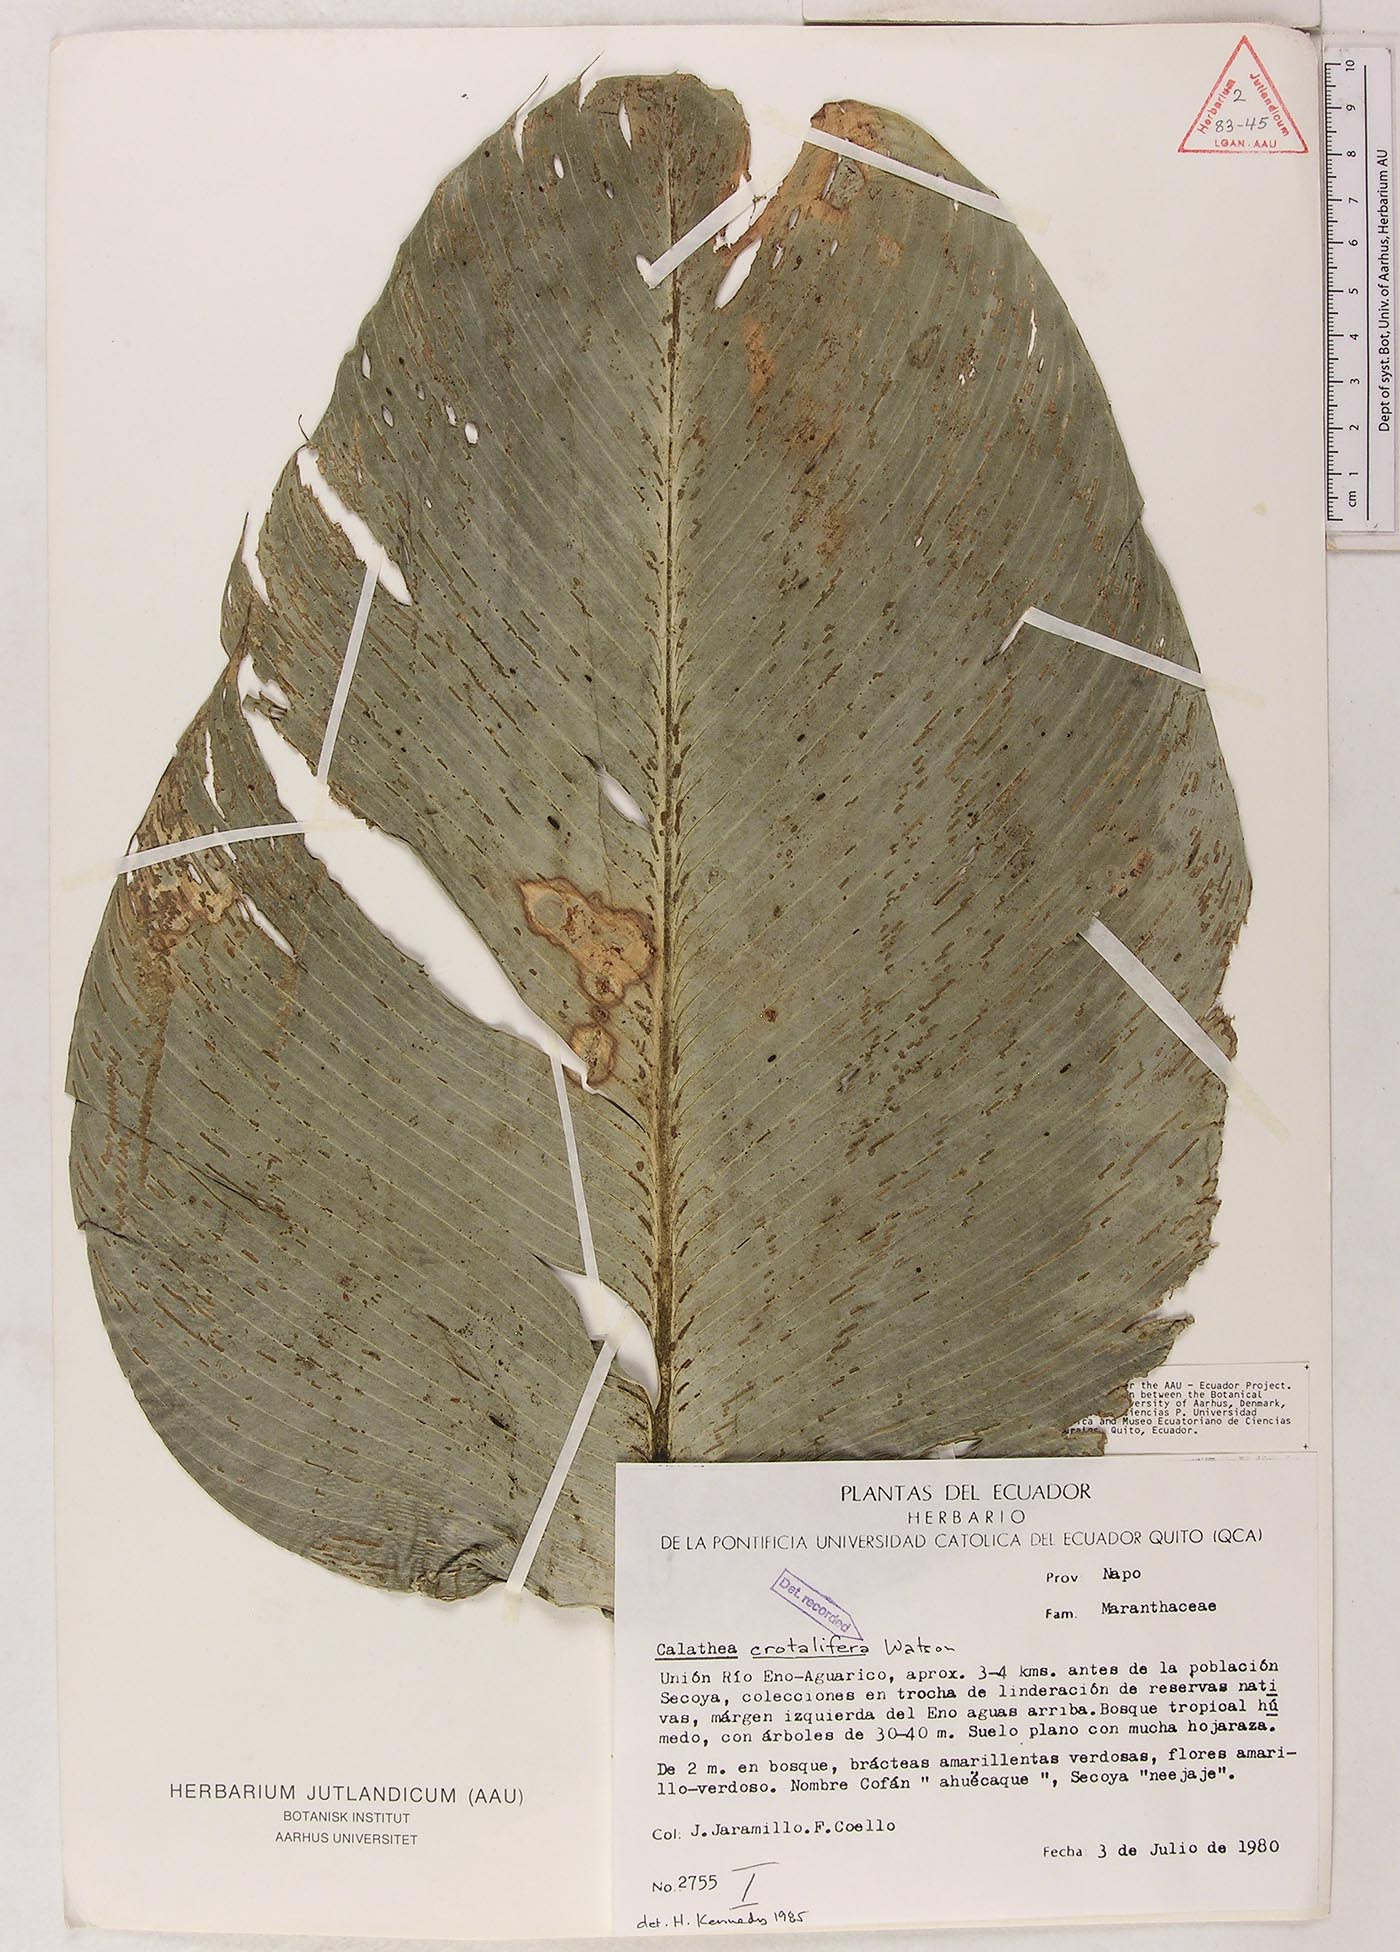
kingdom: Plantae
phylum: Tracheophyta
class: Liliopsida
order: Zingiberales
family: Marantaceae
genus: Calathea
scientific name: Calathea crotalifera
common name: Rattlesnake plant
